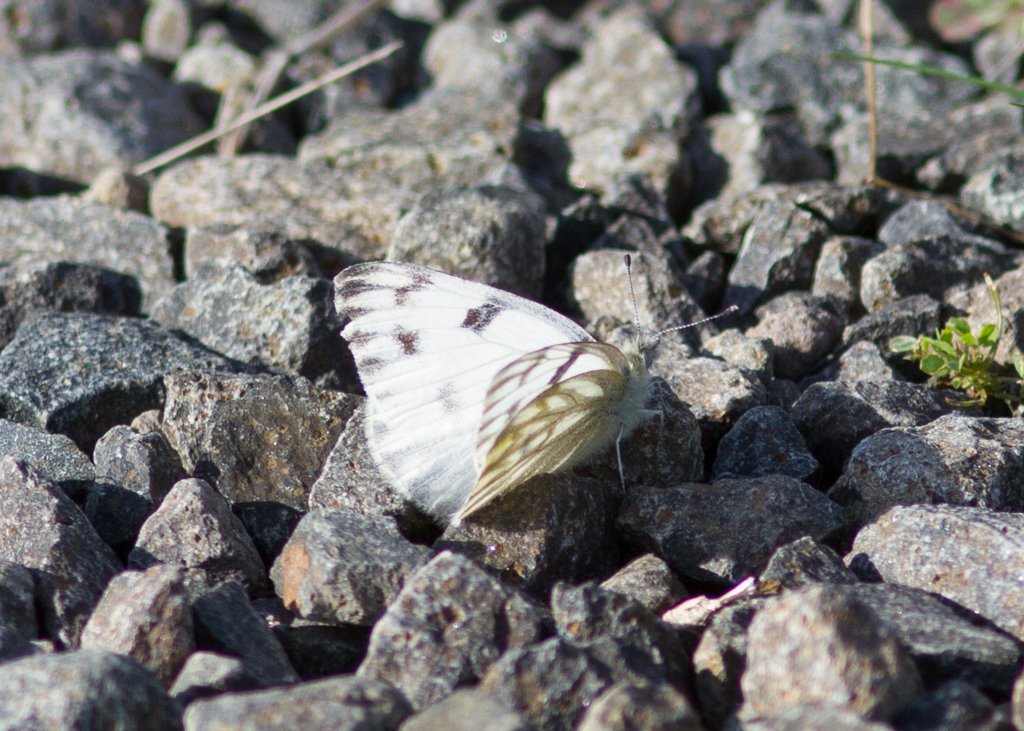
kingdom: Animalia
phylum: Arthropoda
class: Insecta
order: Lepidoptera
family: Pieridae
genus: Pontia
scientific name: Pontia protodice
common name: Checkered White
